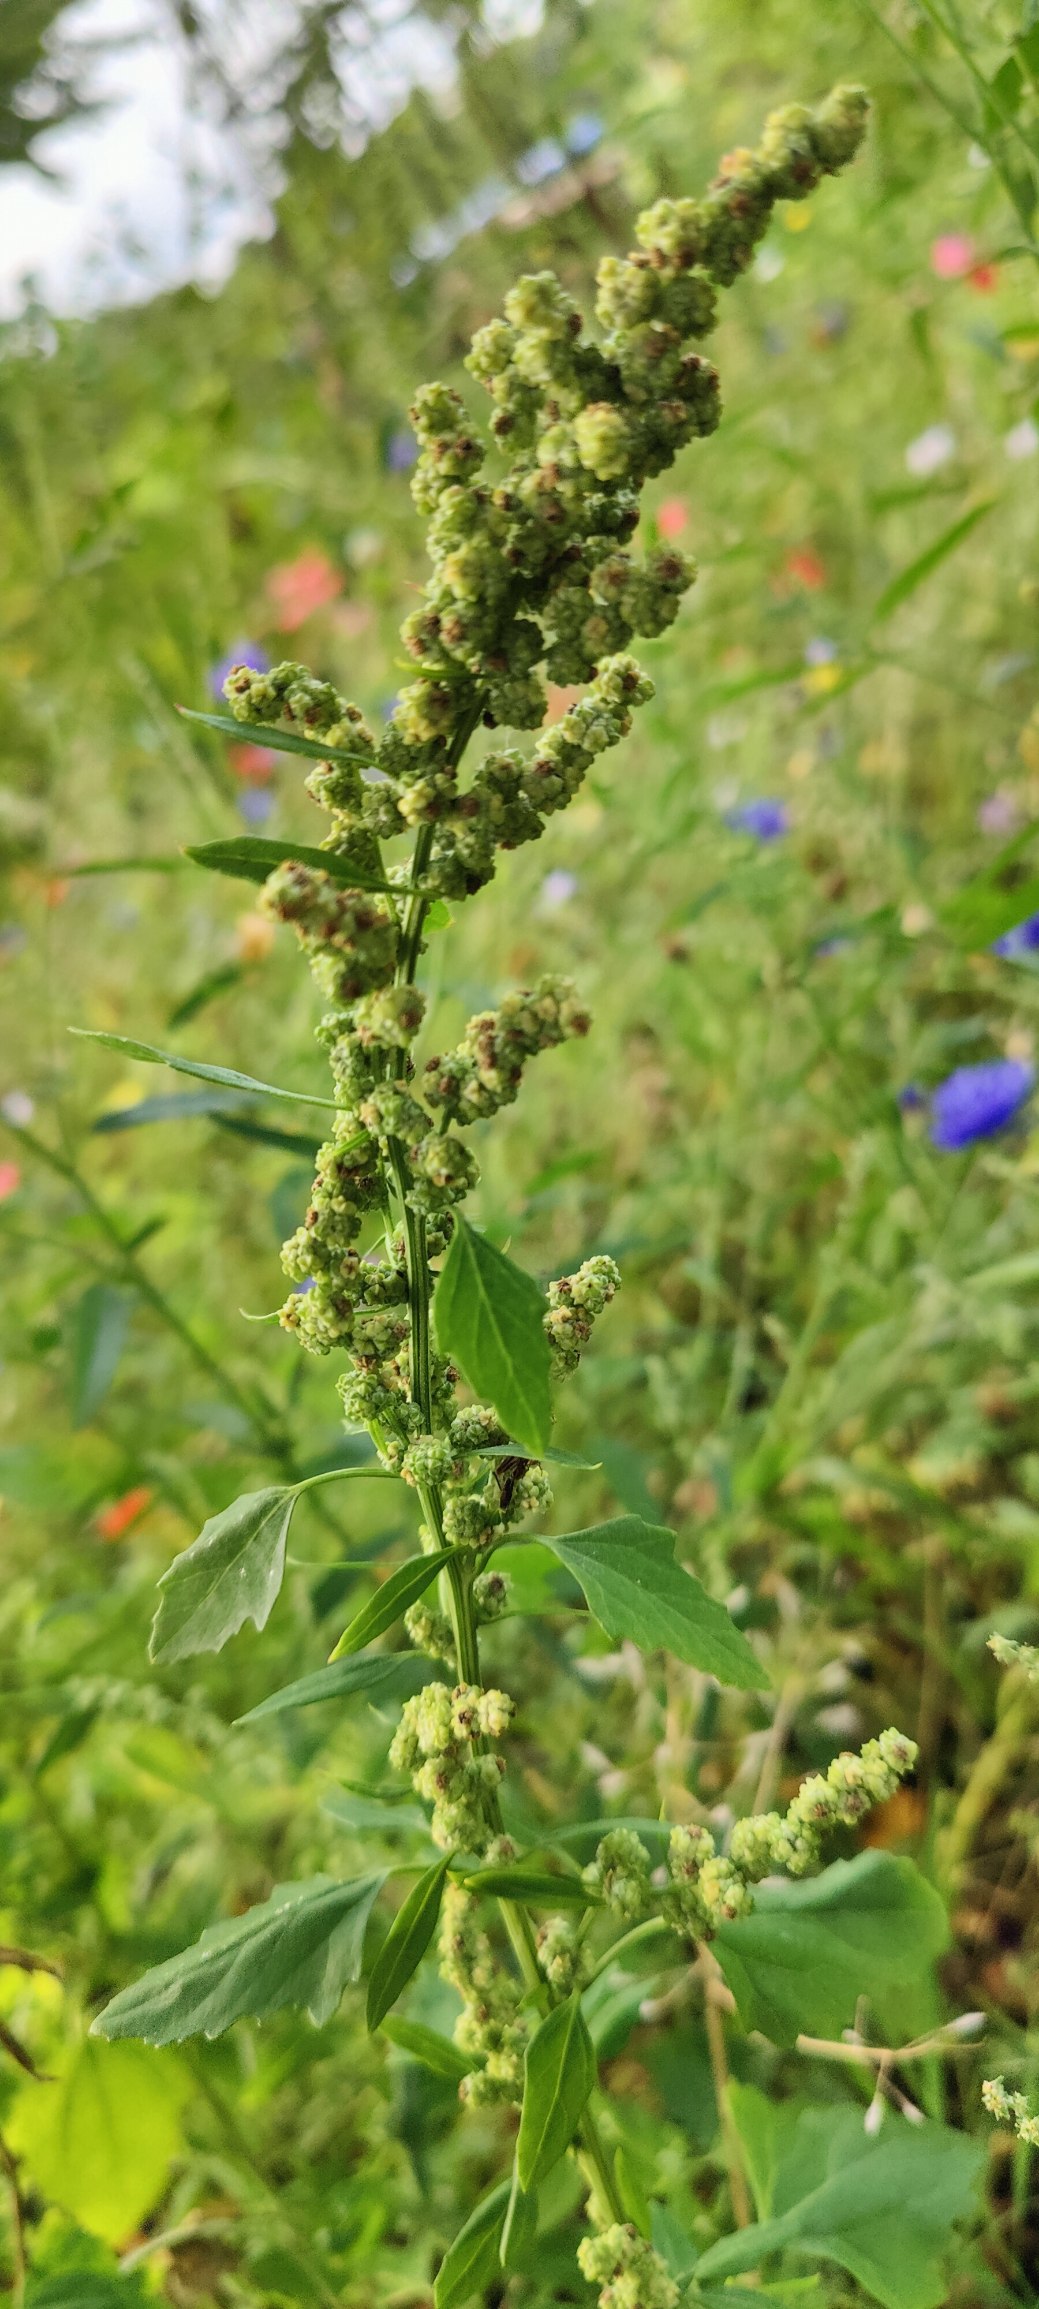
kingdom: Plantae
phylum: Tracheophyta
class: Magnoliopsida
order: Caryophyllales
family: Amaranthaceae
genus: Chenopodium
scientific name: Chenopodium album
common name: Hvidmelet gåsefod
